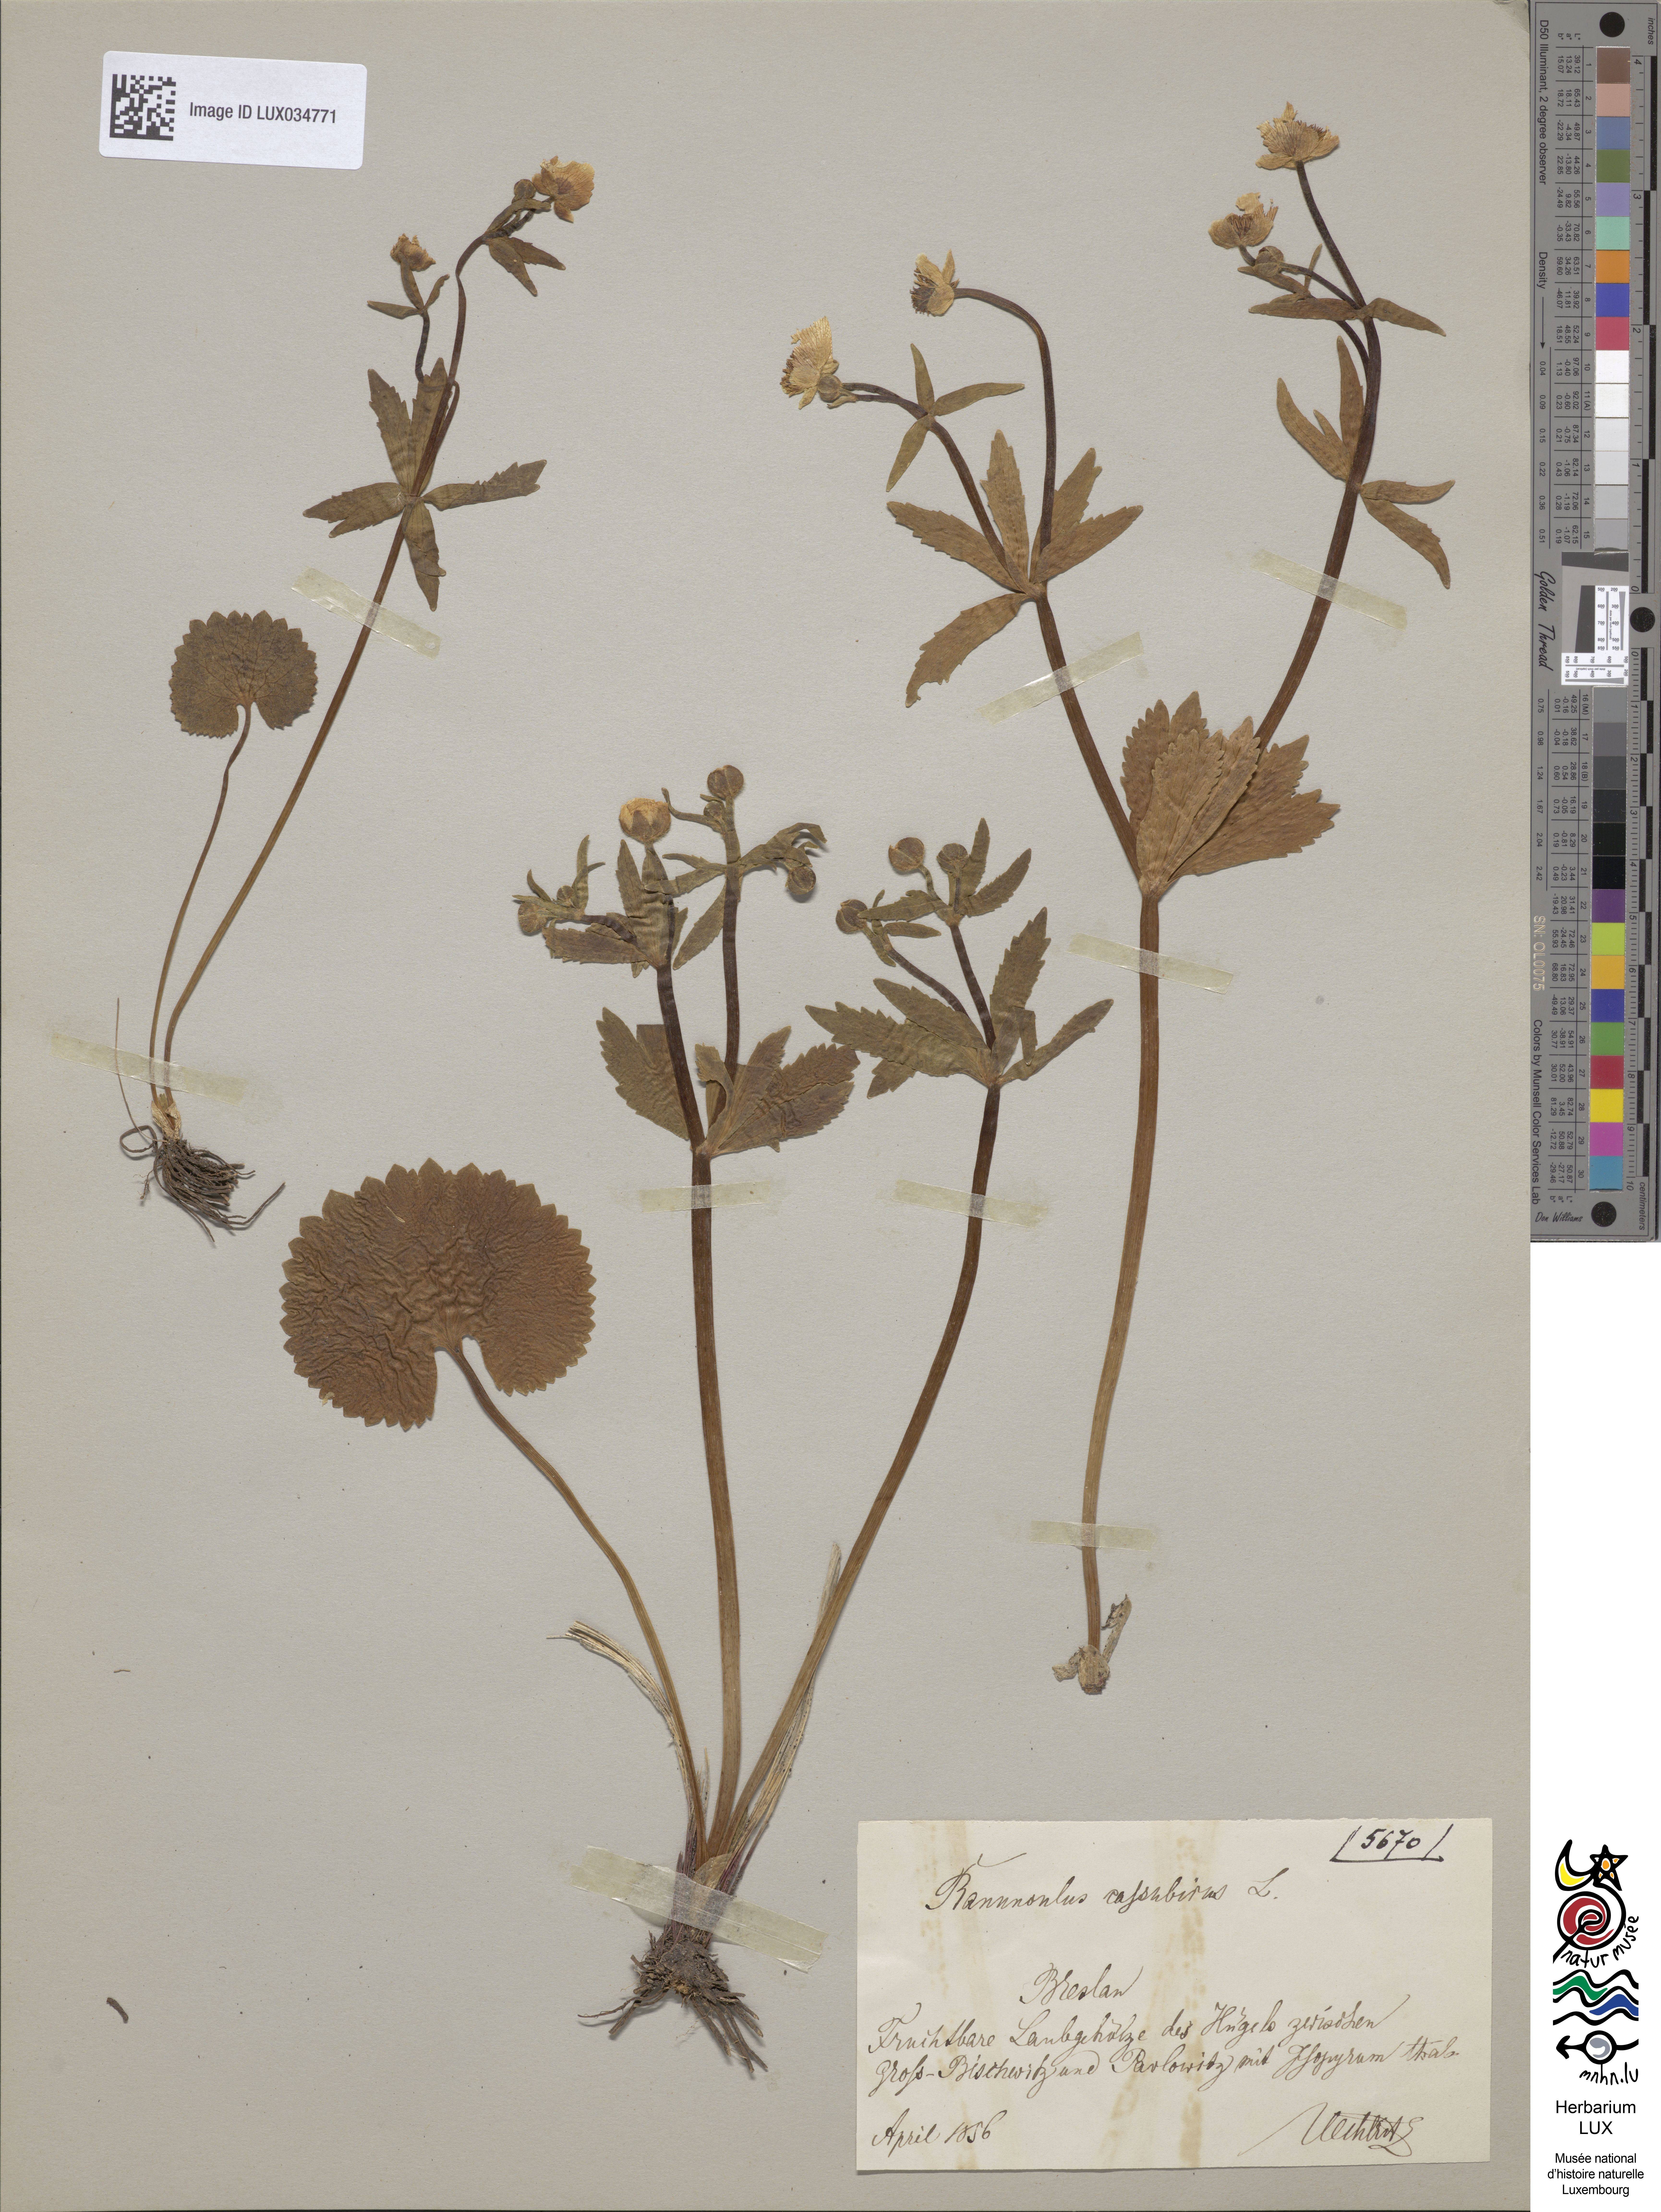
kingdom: Plantae
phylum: Tracheophyta
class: Magnoliopsida
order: Ranunculales
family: Ranunculaceae
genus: Ranunculus
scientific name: Ranunculus cassubicus
